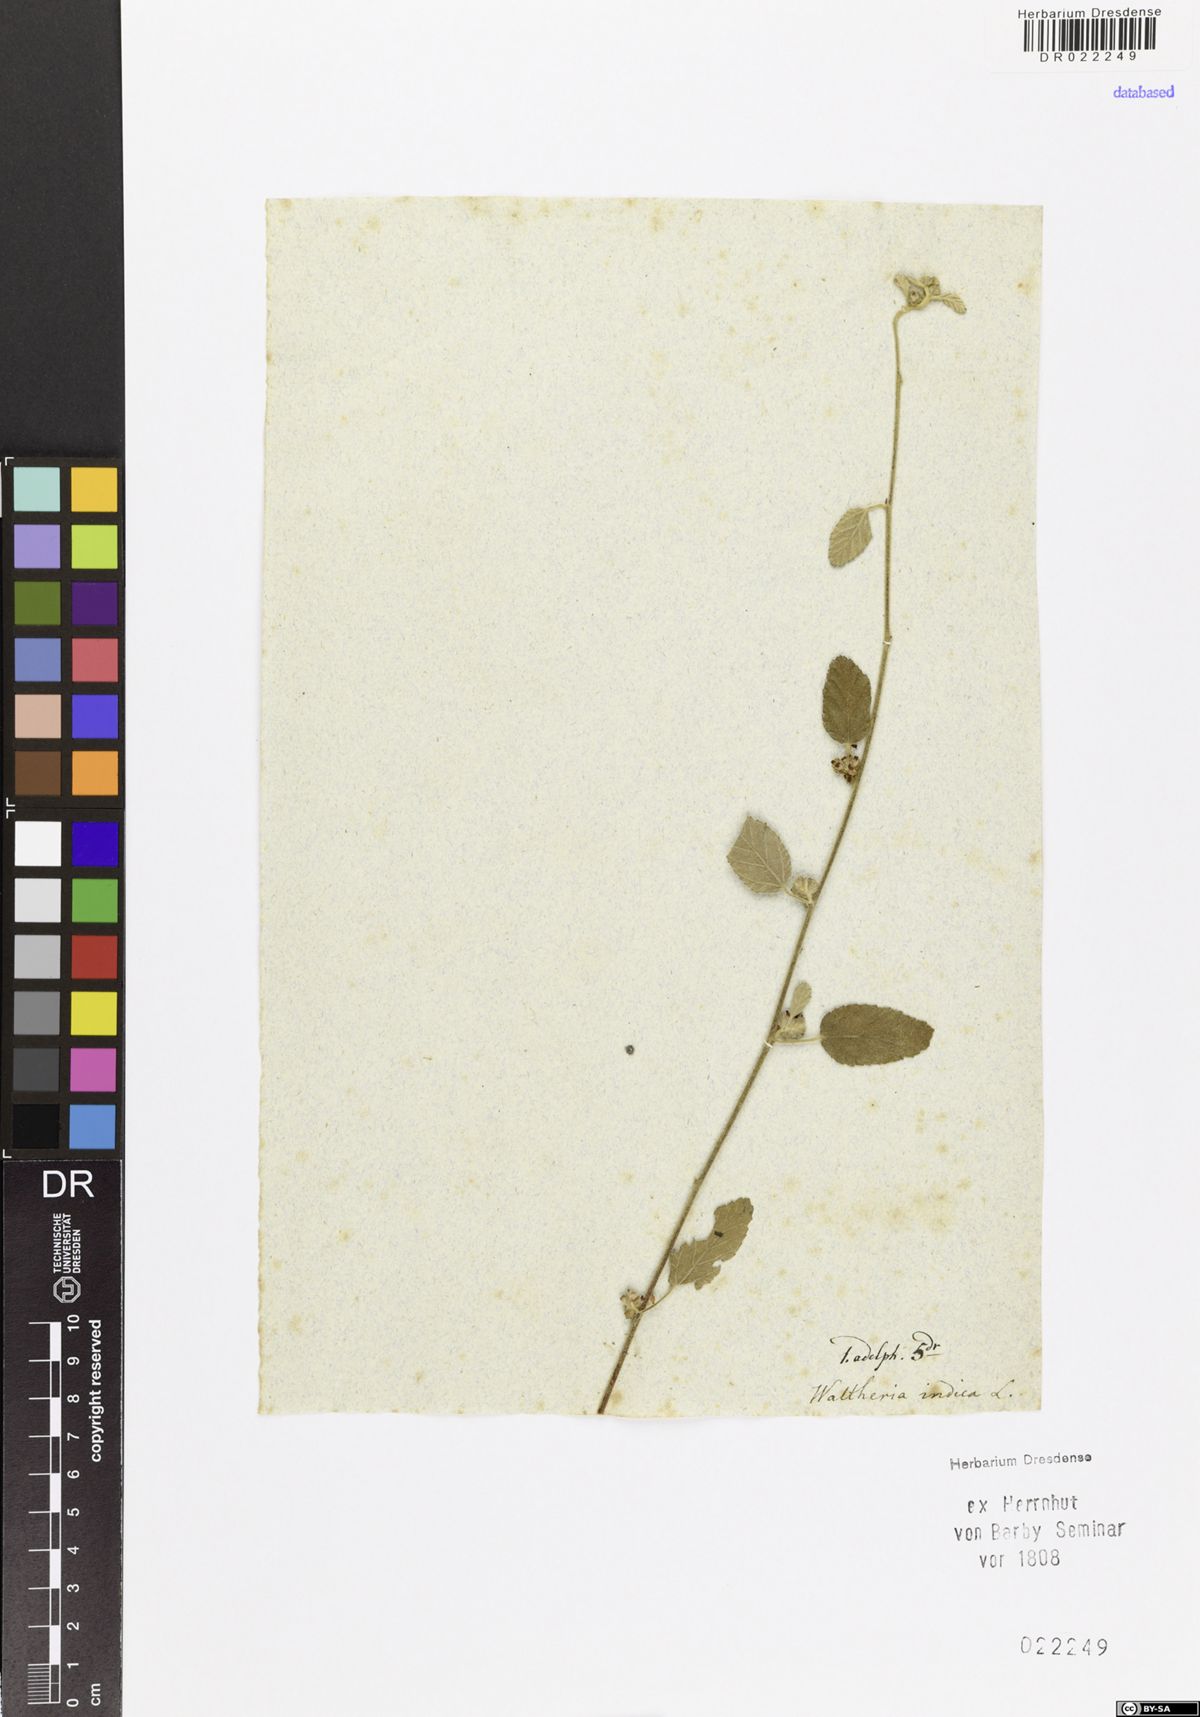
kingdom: Plantae
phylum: Tracheophyta
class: Magnoliopsida
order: Malvales
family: Malvaceae
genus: Waltheria
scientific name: Waltheria indica
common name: Leather-coat
